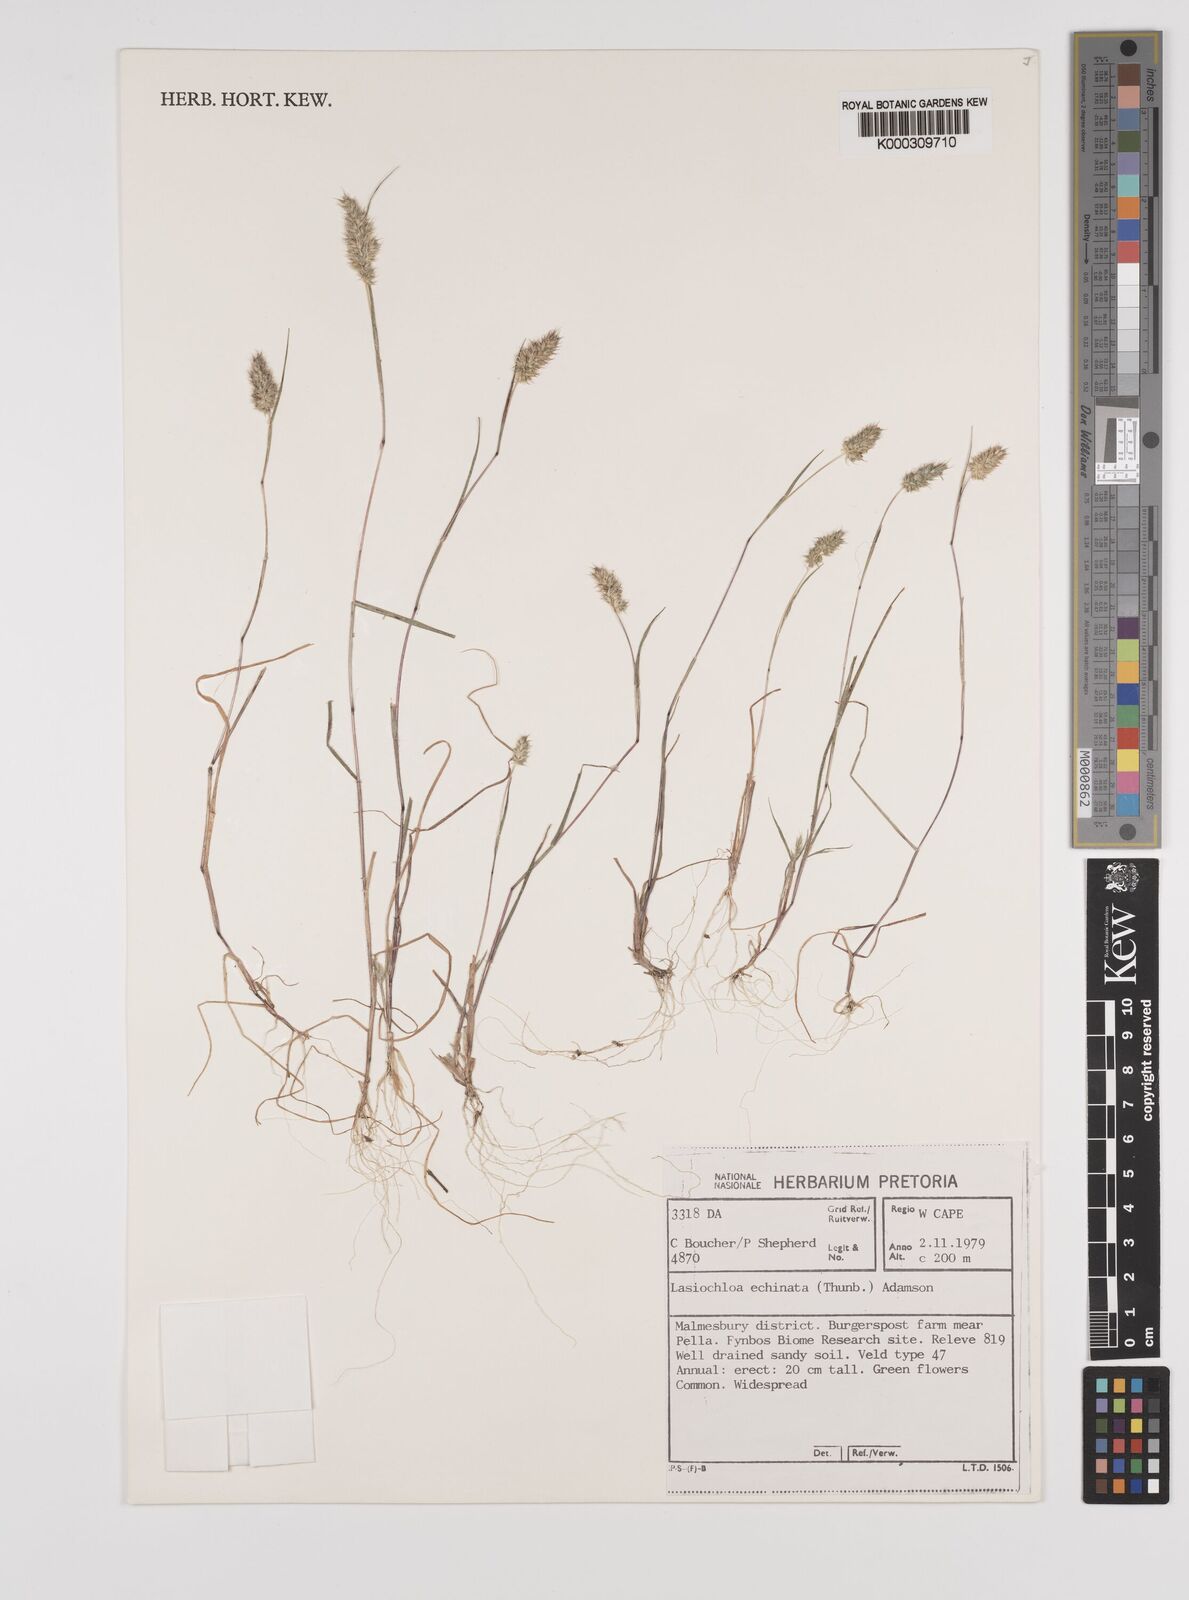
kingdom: Plantae
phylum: Tracheophyta
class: Liliopsida
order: Poales
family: Poaceae
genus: Tribolium
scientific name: Tribolium echinatum
